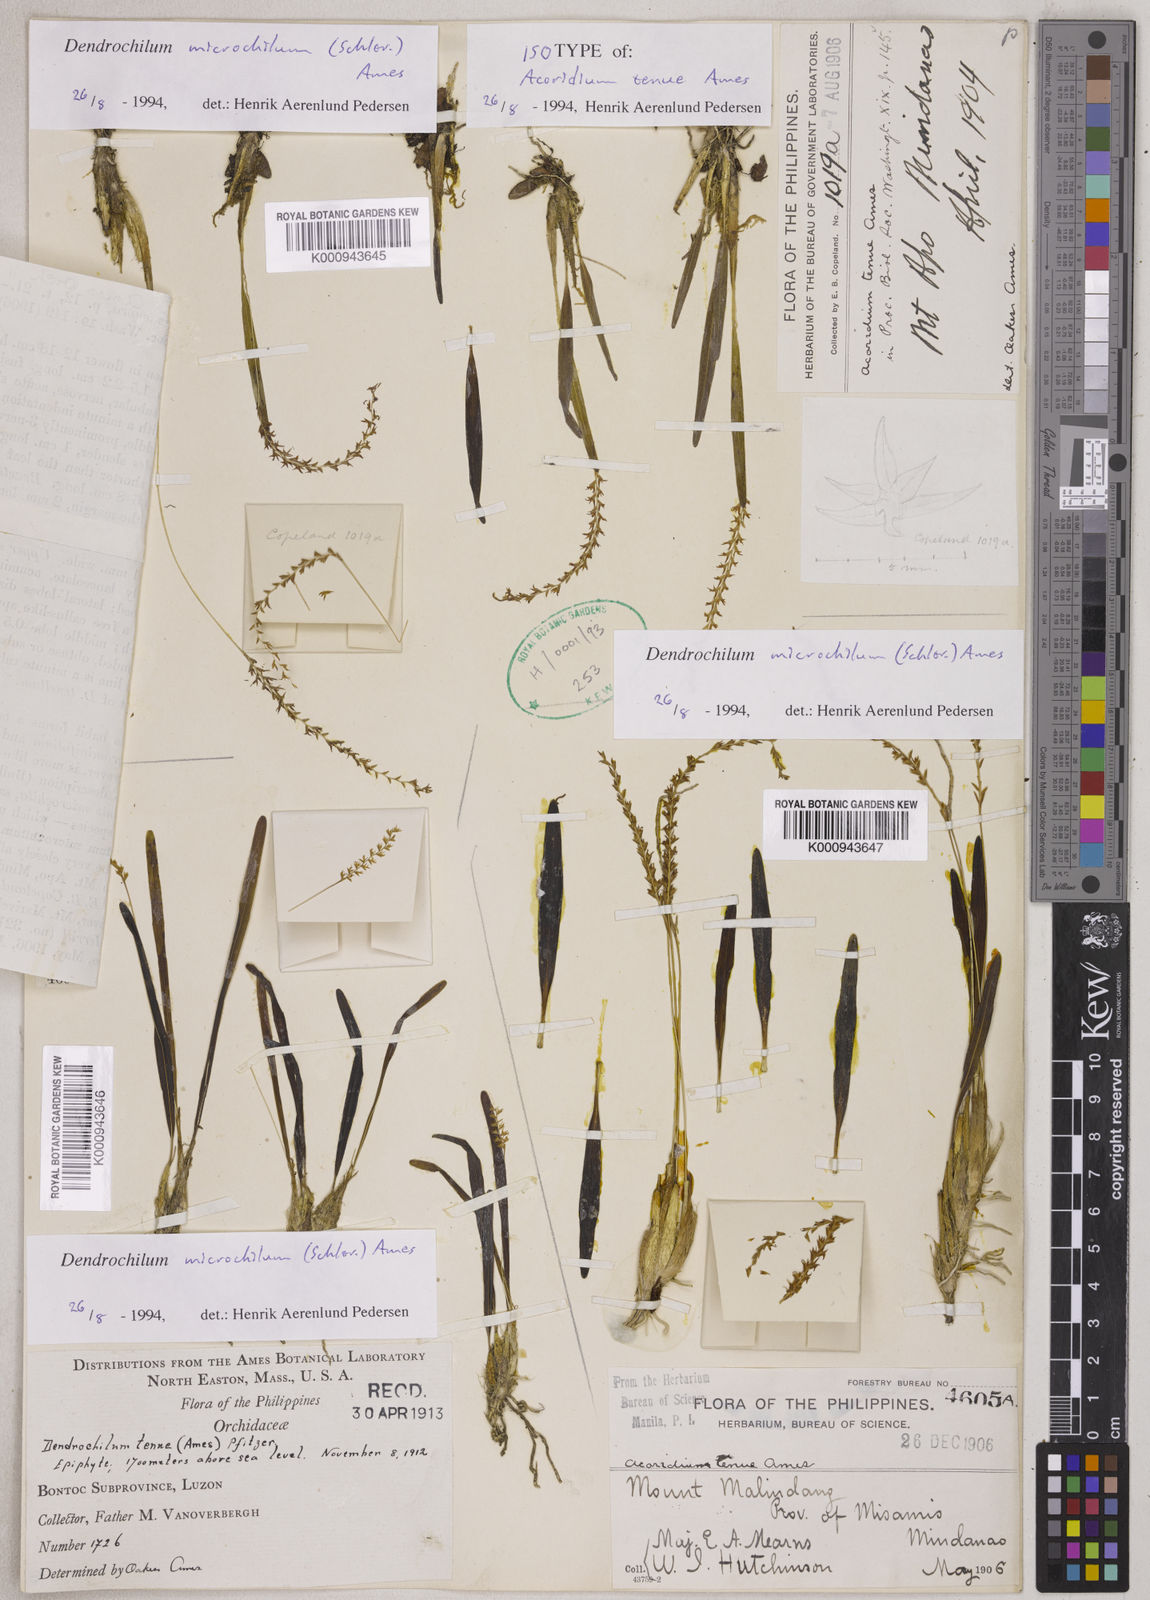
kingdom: Plantae
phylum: Tracheophyta
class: Liliopsida
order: Asparagales
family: Orchidaceae
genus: Coelogyne
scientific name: Coelogyne microchila
